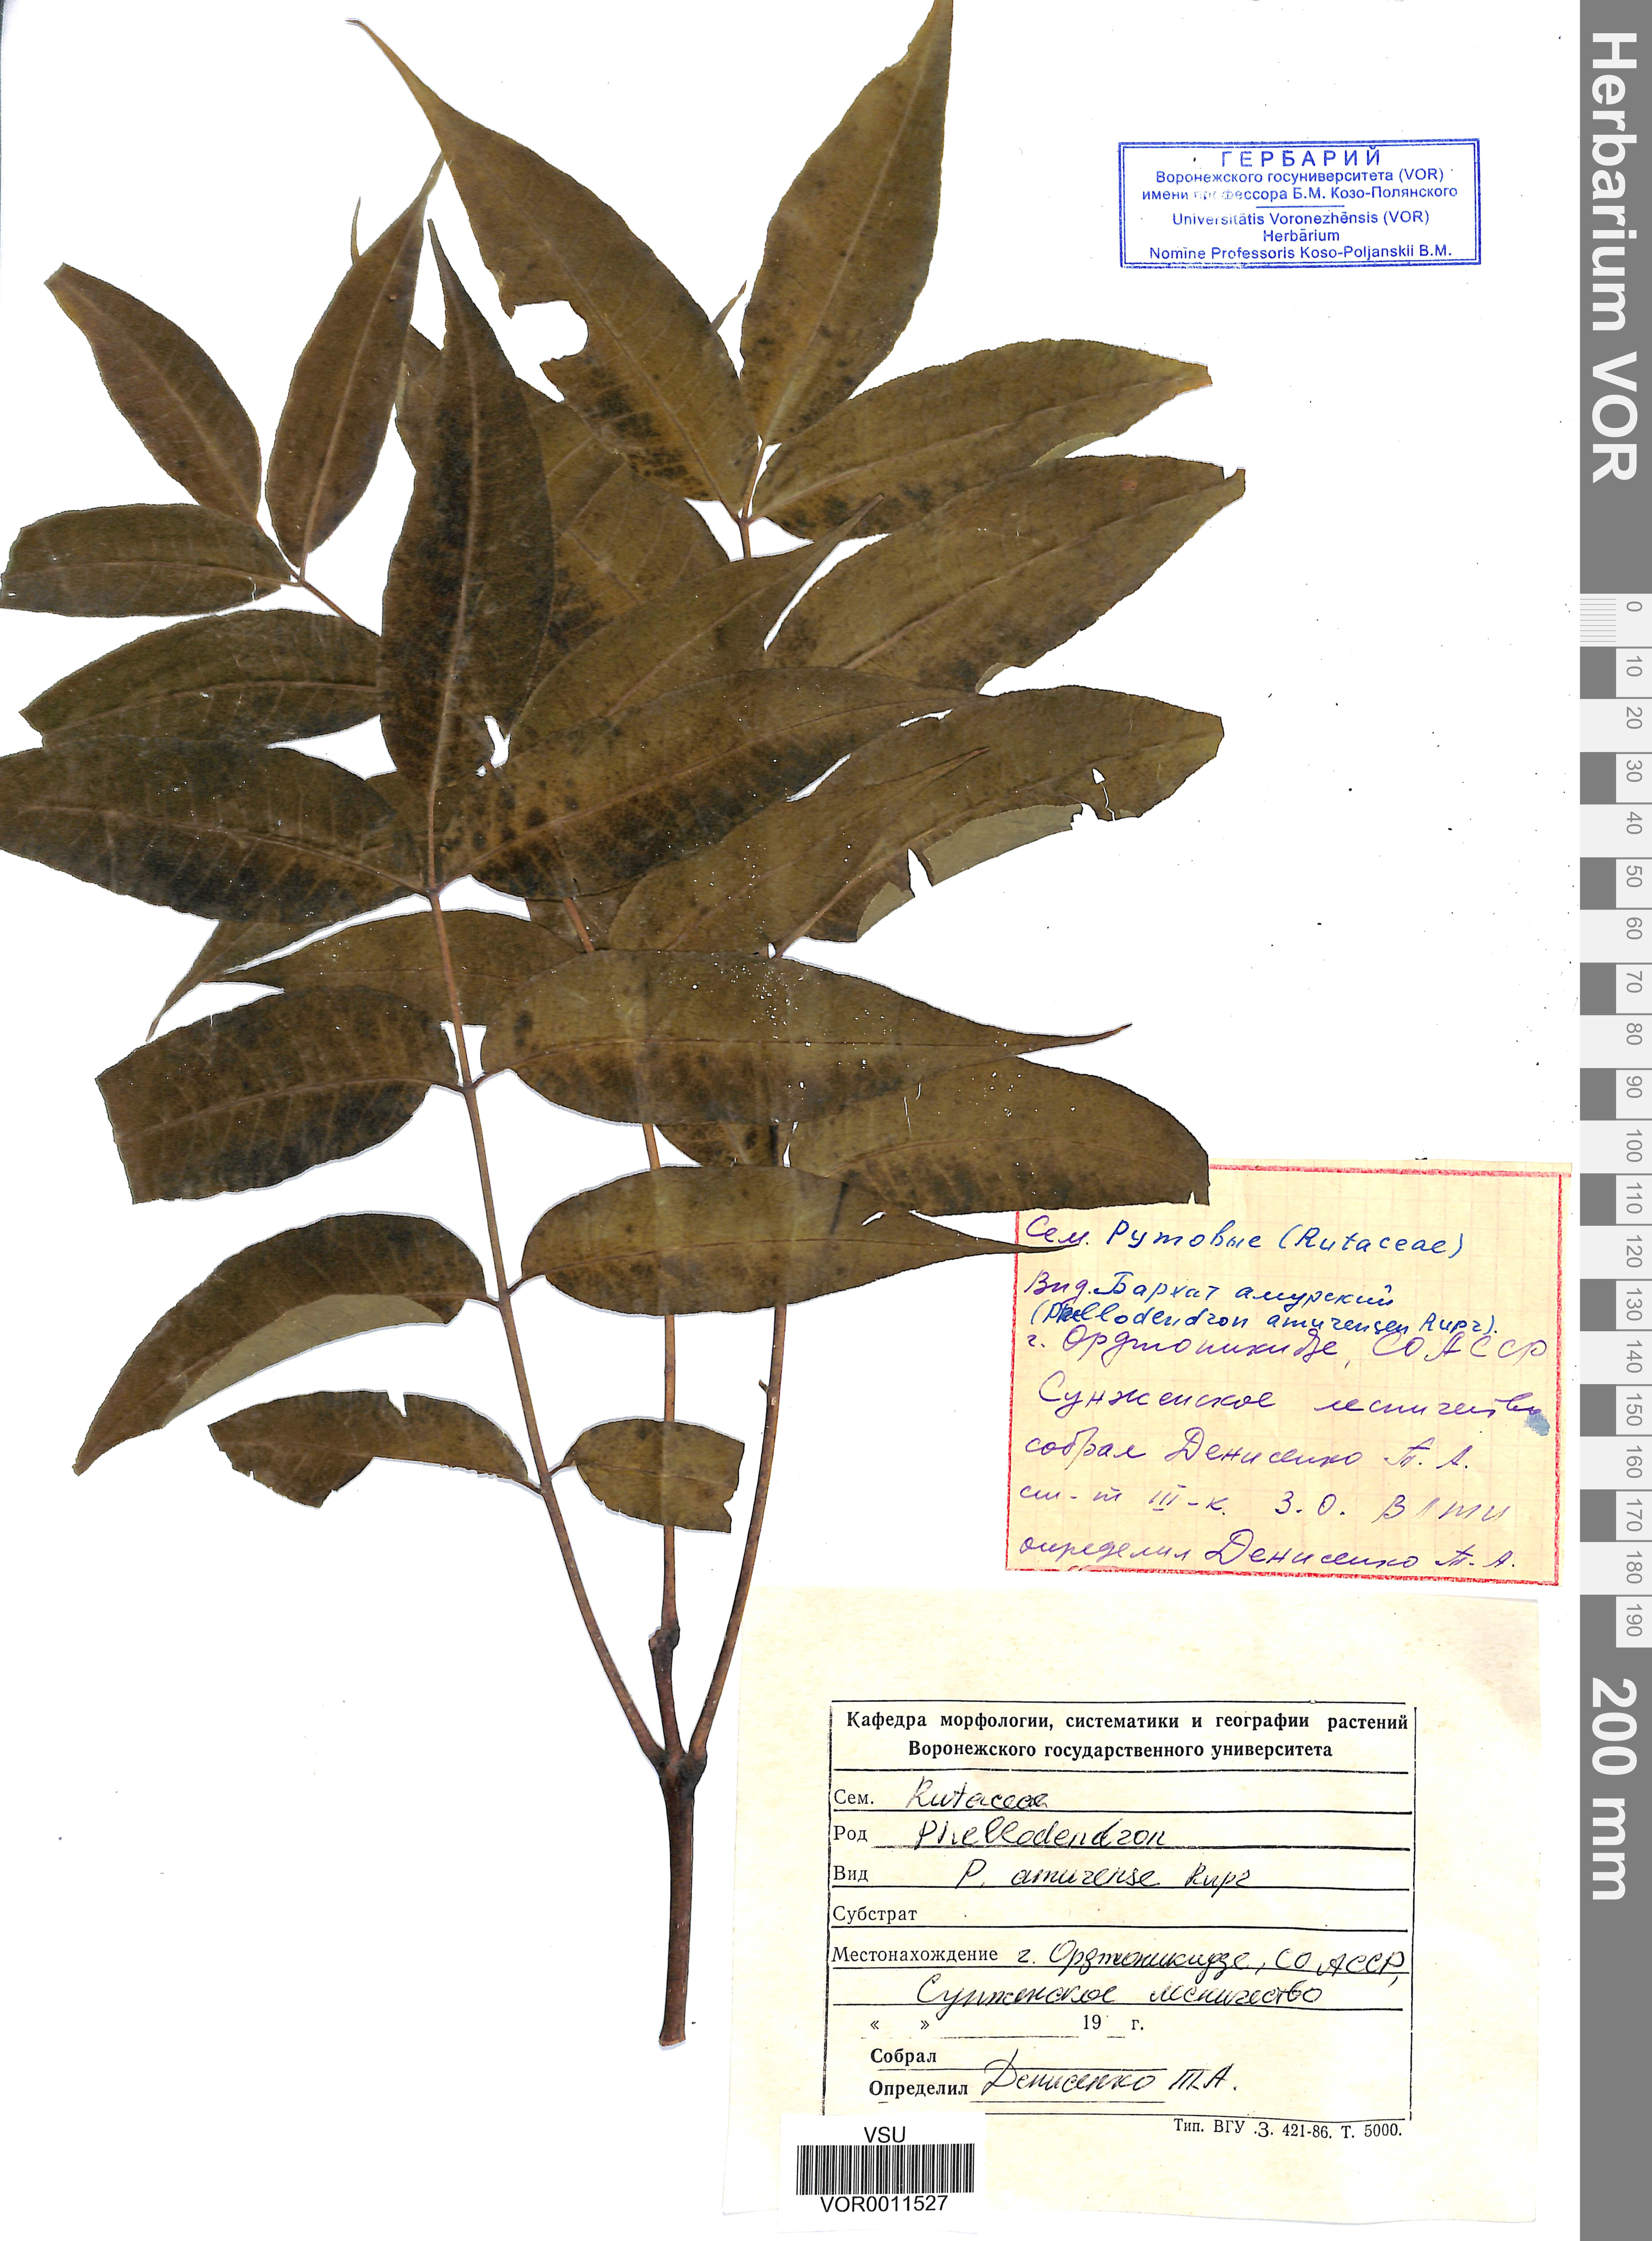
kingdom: Plantae
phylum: Tracheophyta
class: Magnoliopsida
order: Sapindales
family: Rutaceae
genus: Phellodendron
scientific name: Phellodendron amurense
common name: Amur corktree
